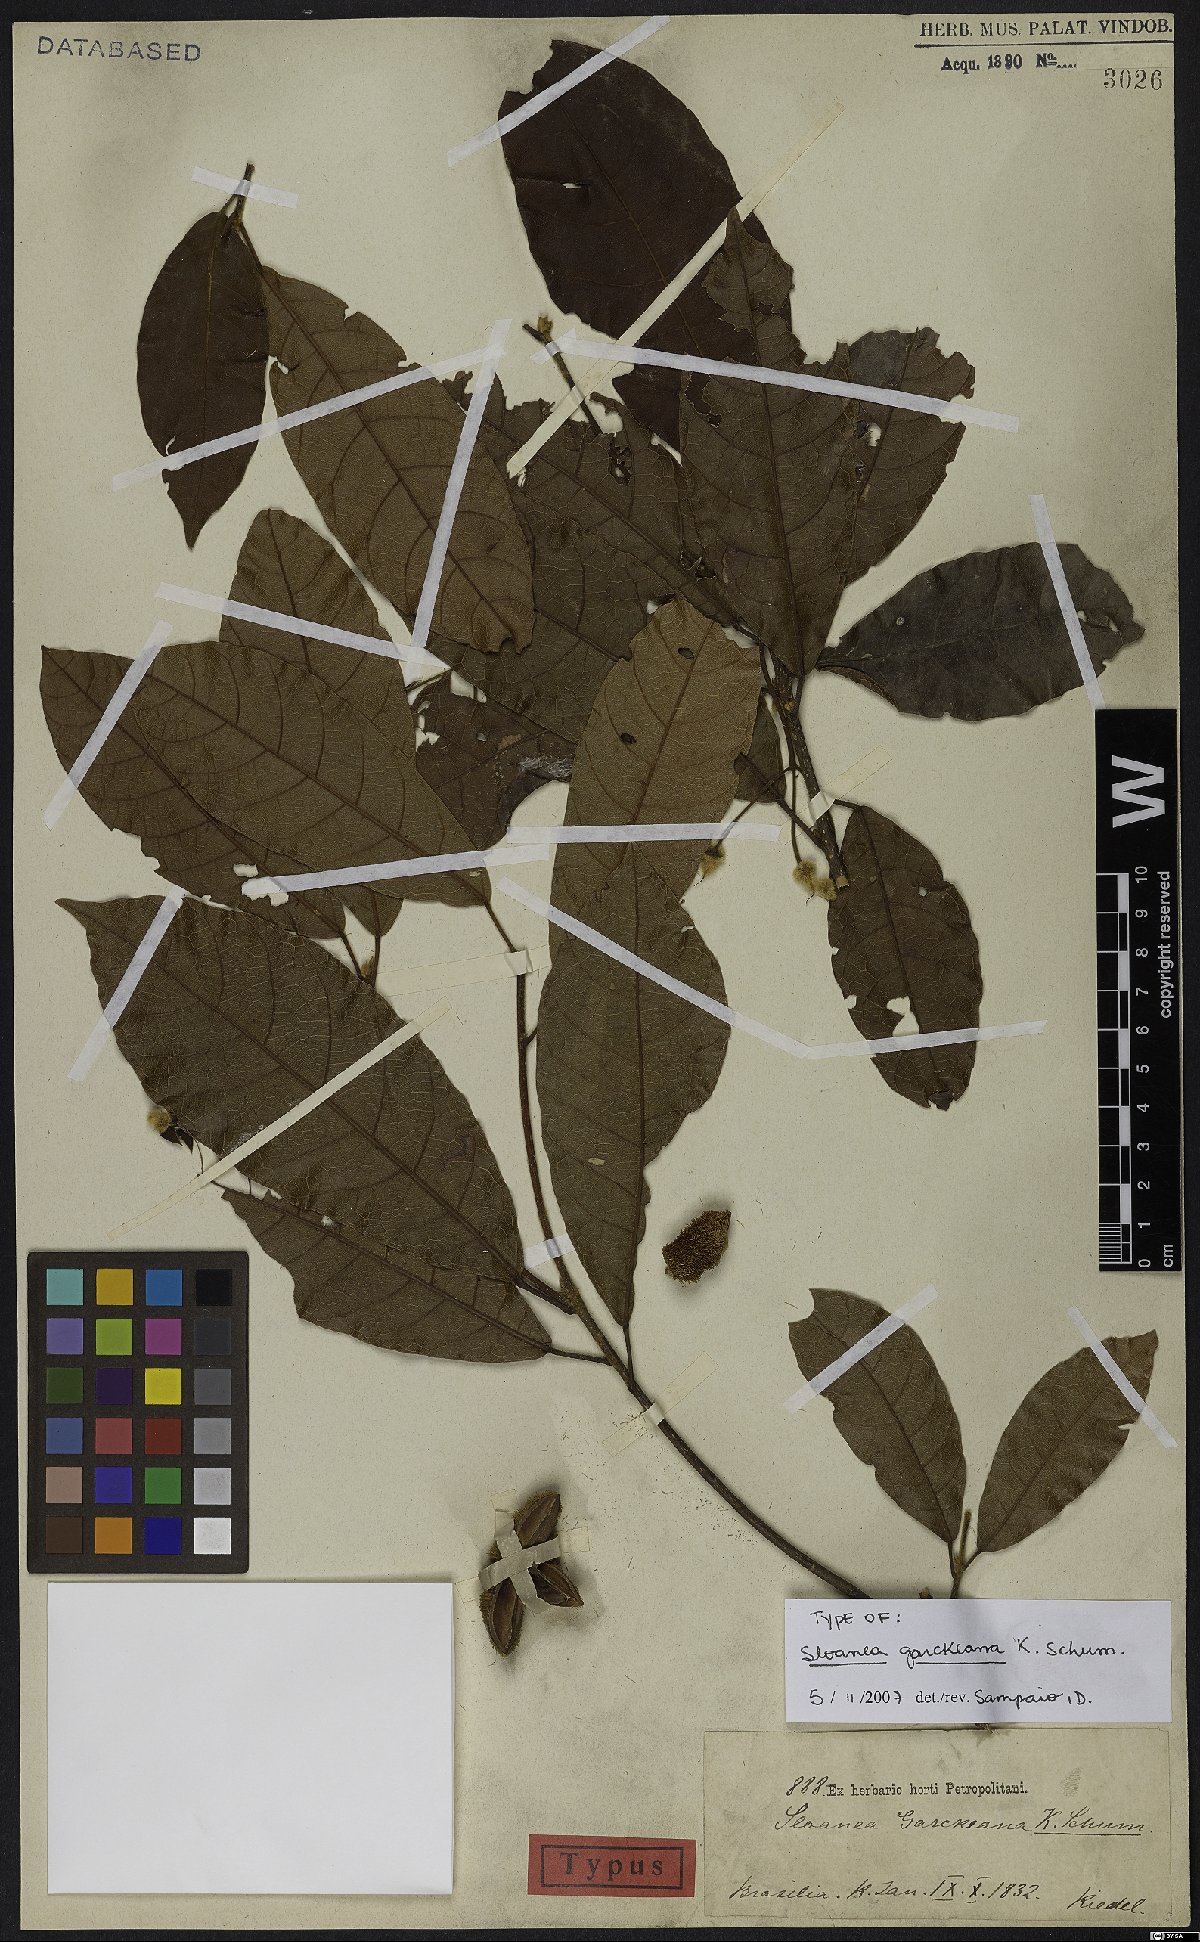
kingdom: Plantae
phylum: Tracheophyta
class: Magnoliopsida
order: Oxalidales
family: Elaeocarpaceae
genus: Sloanea
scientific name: Sloanea garckeana
